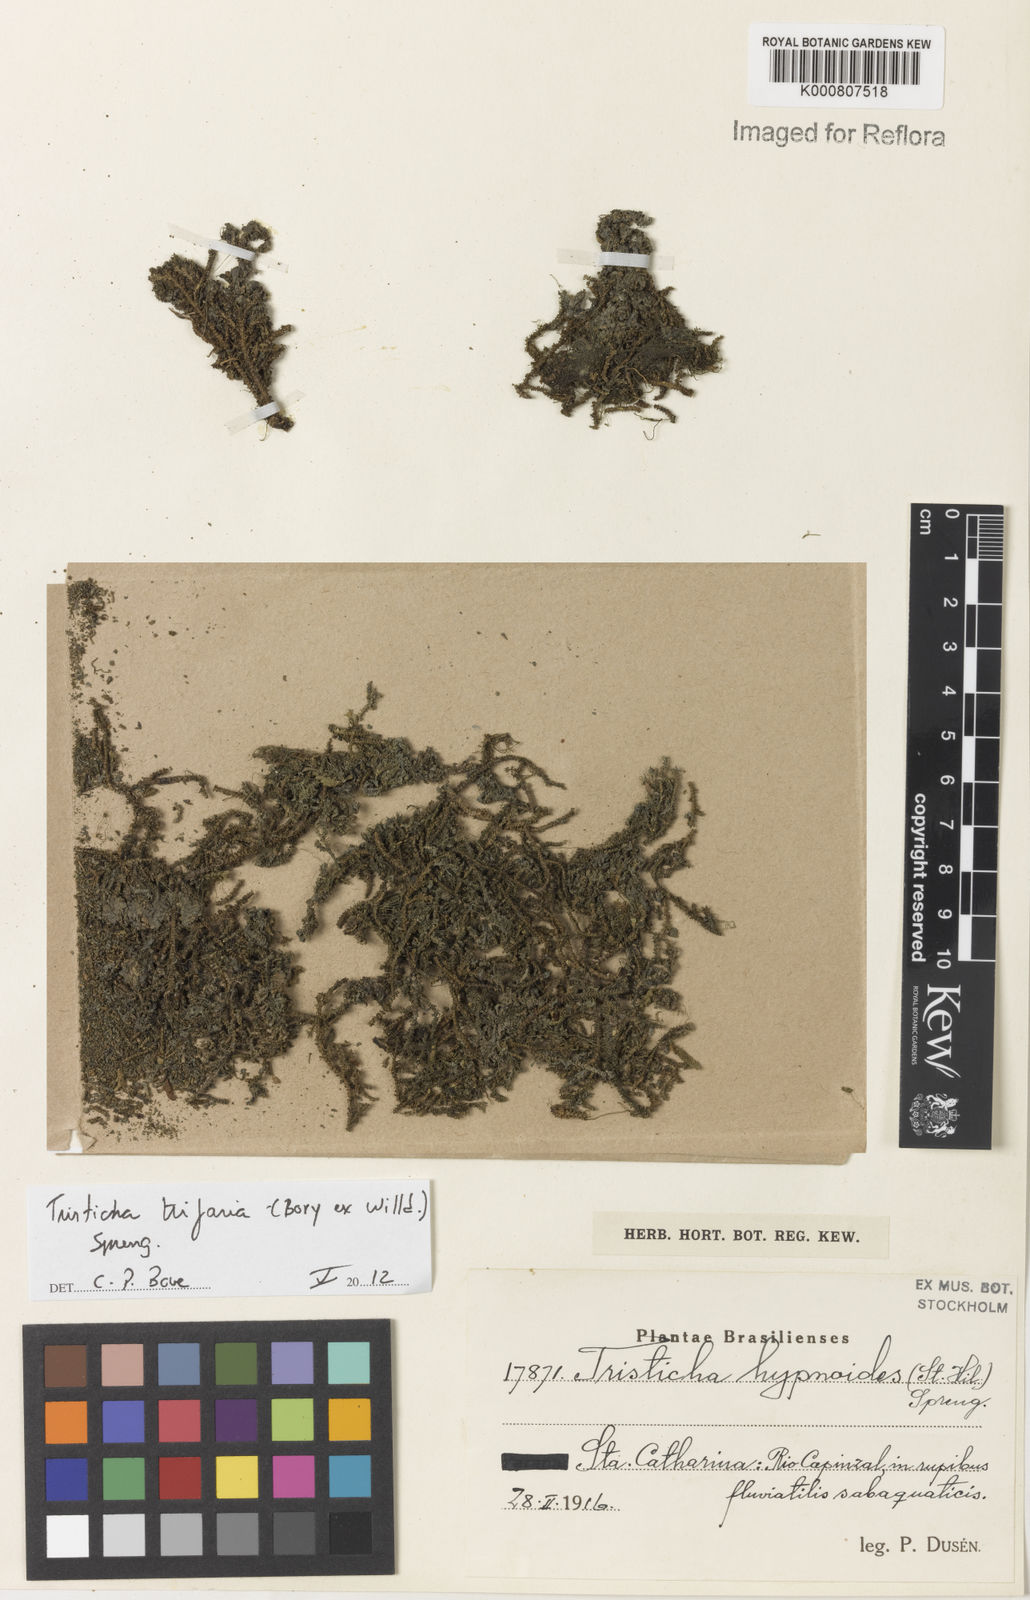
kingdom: Plantae
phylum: Tracheophyta
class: Magnoliopsida
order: Malpighiales
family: Podostemaceae
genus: Tristicha
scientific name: Tristicha trifaria
